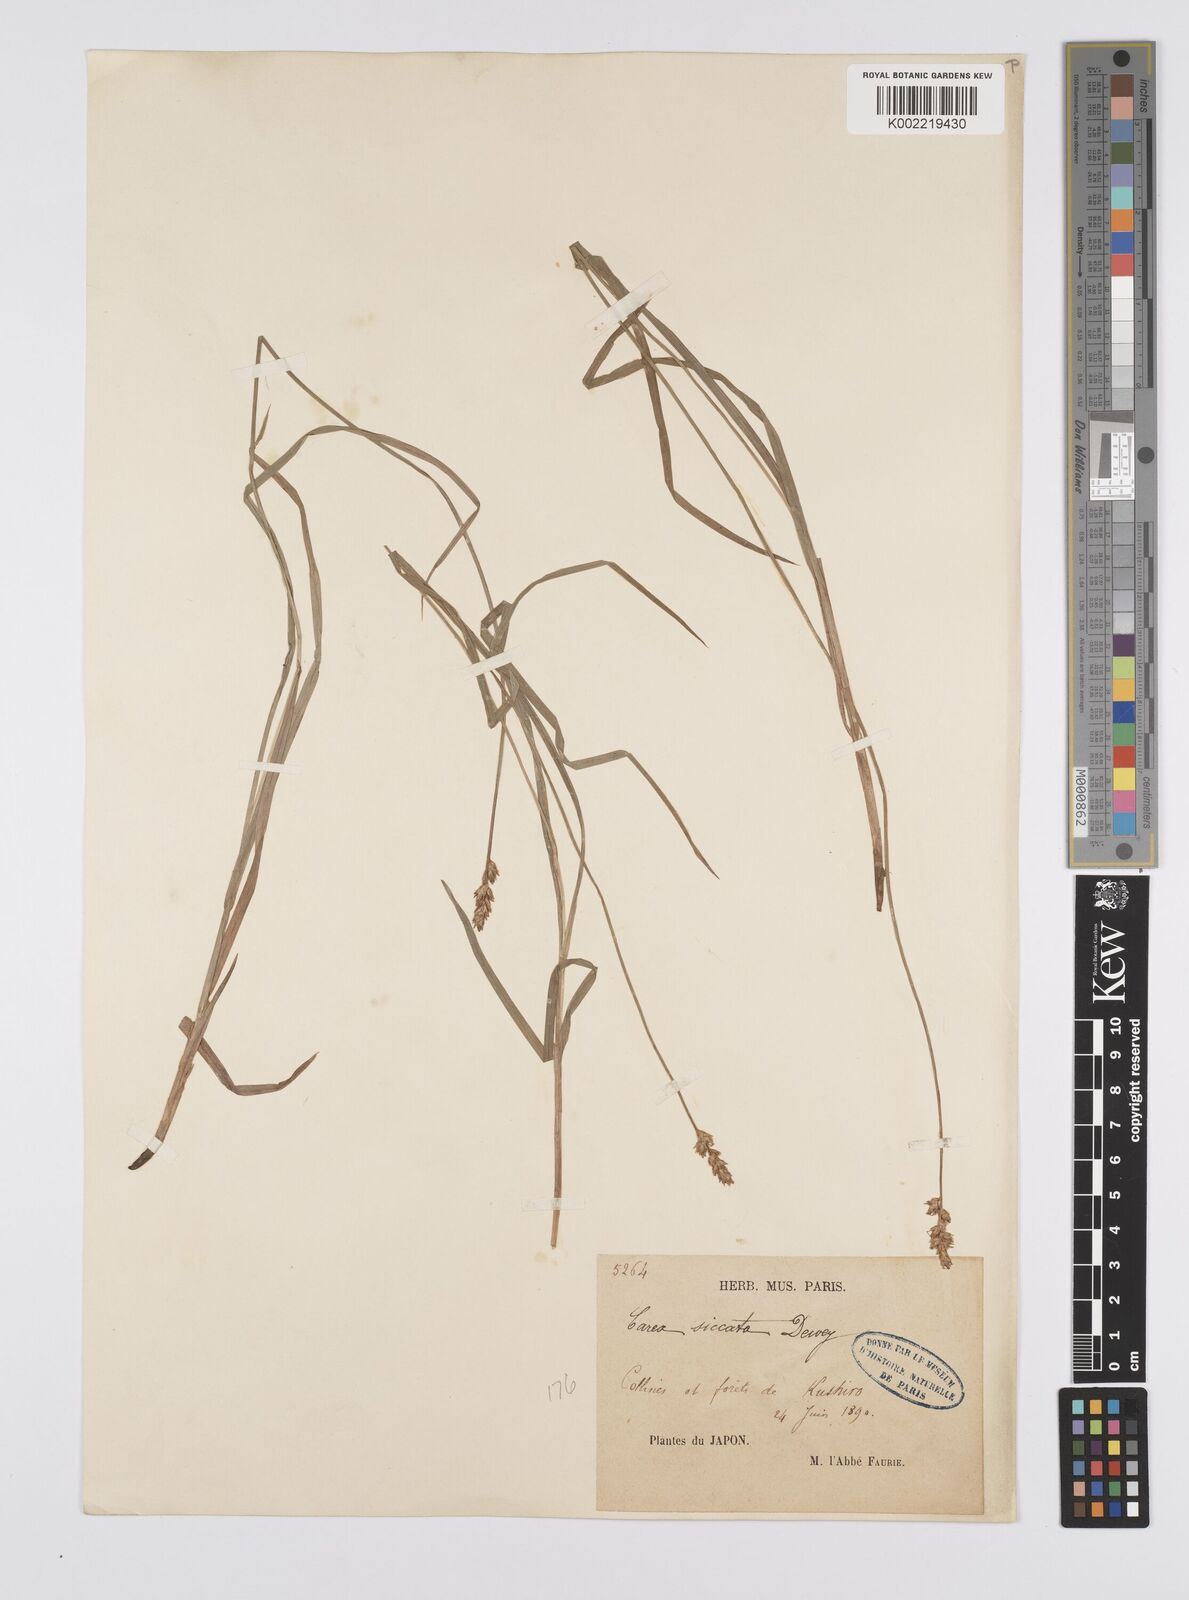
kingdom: Plantae
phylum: Tracheophyta
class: Liliopsida
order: Poales
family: Cyperaceae
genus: Carex
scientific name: Carex siccata
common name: Dry sedge
